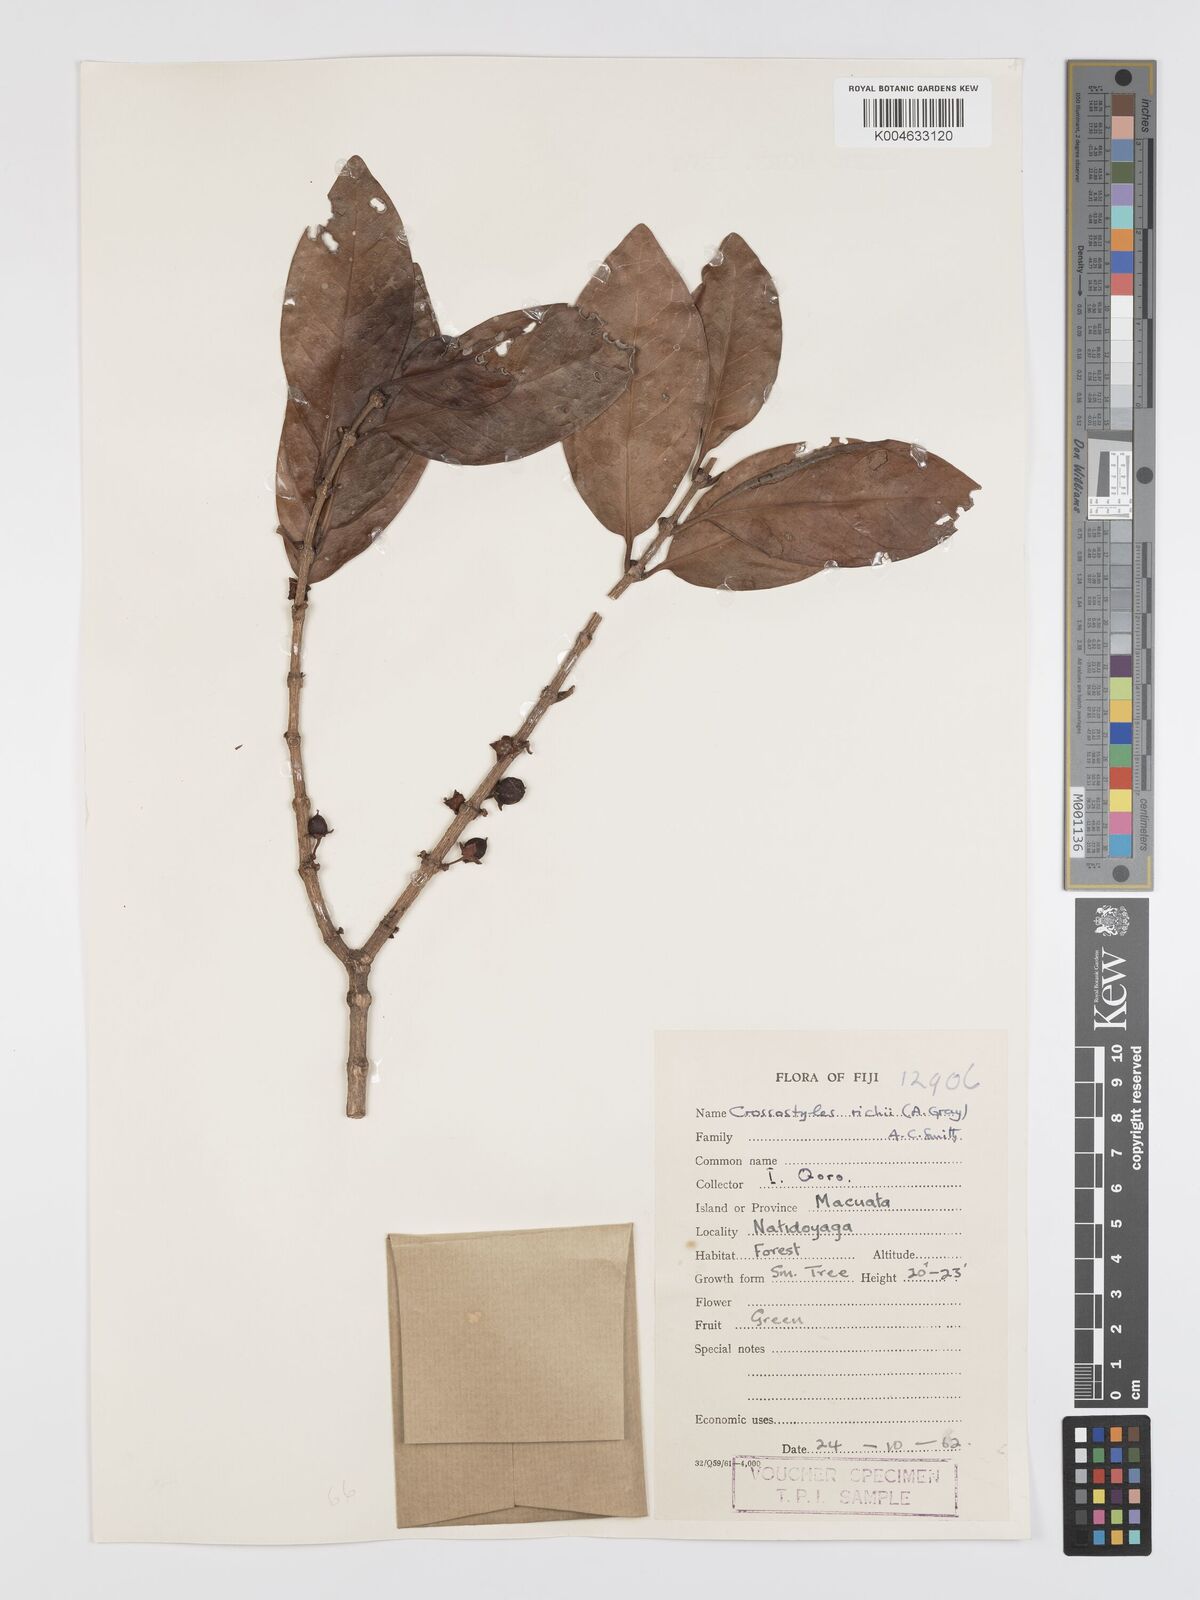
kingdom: Plantae
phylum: Tracheophyta
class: Magnoliopsida
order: Malpighiales
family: Rhizophoraceae
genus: Crossostylis
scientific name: Crossostylis richii
